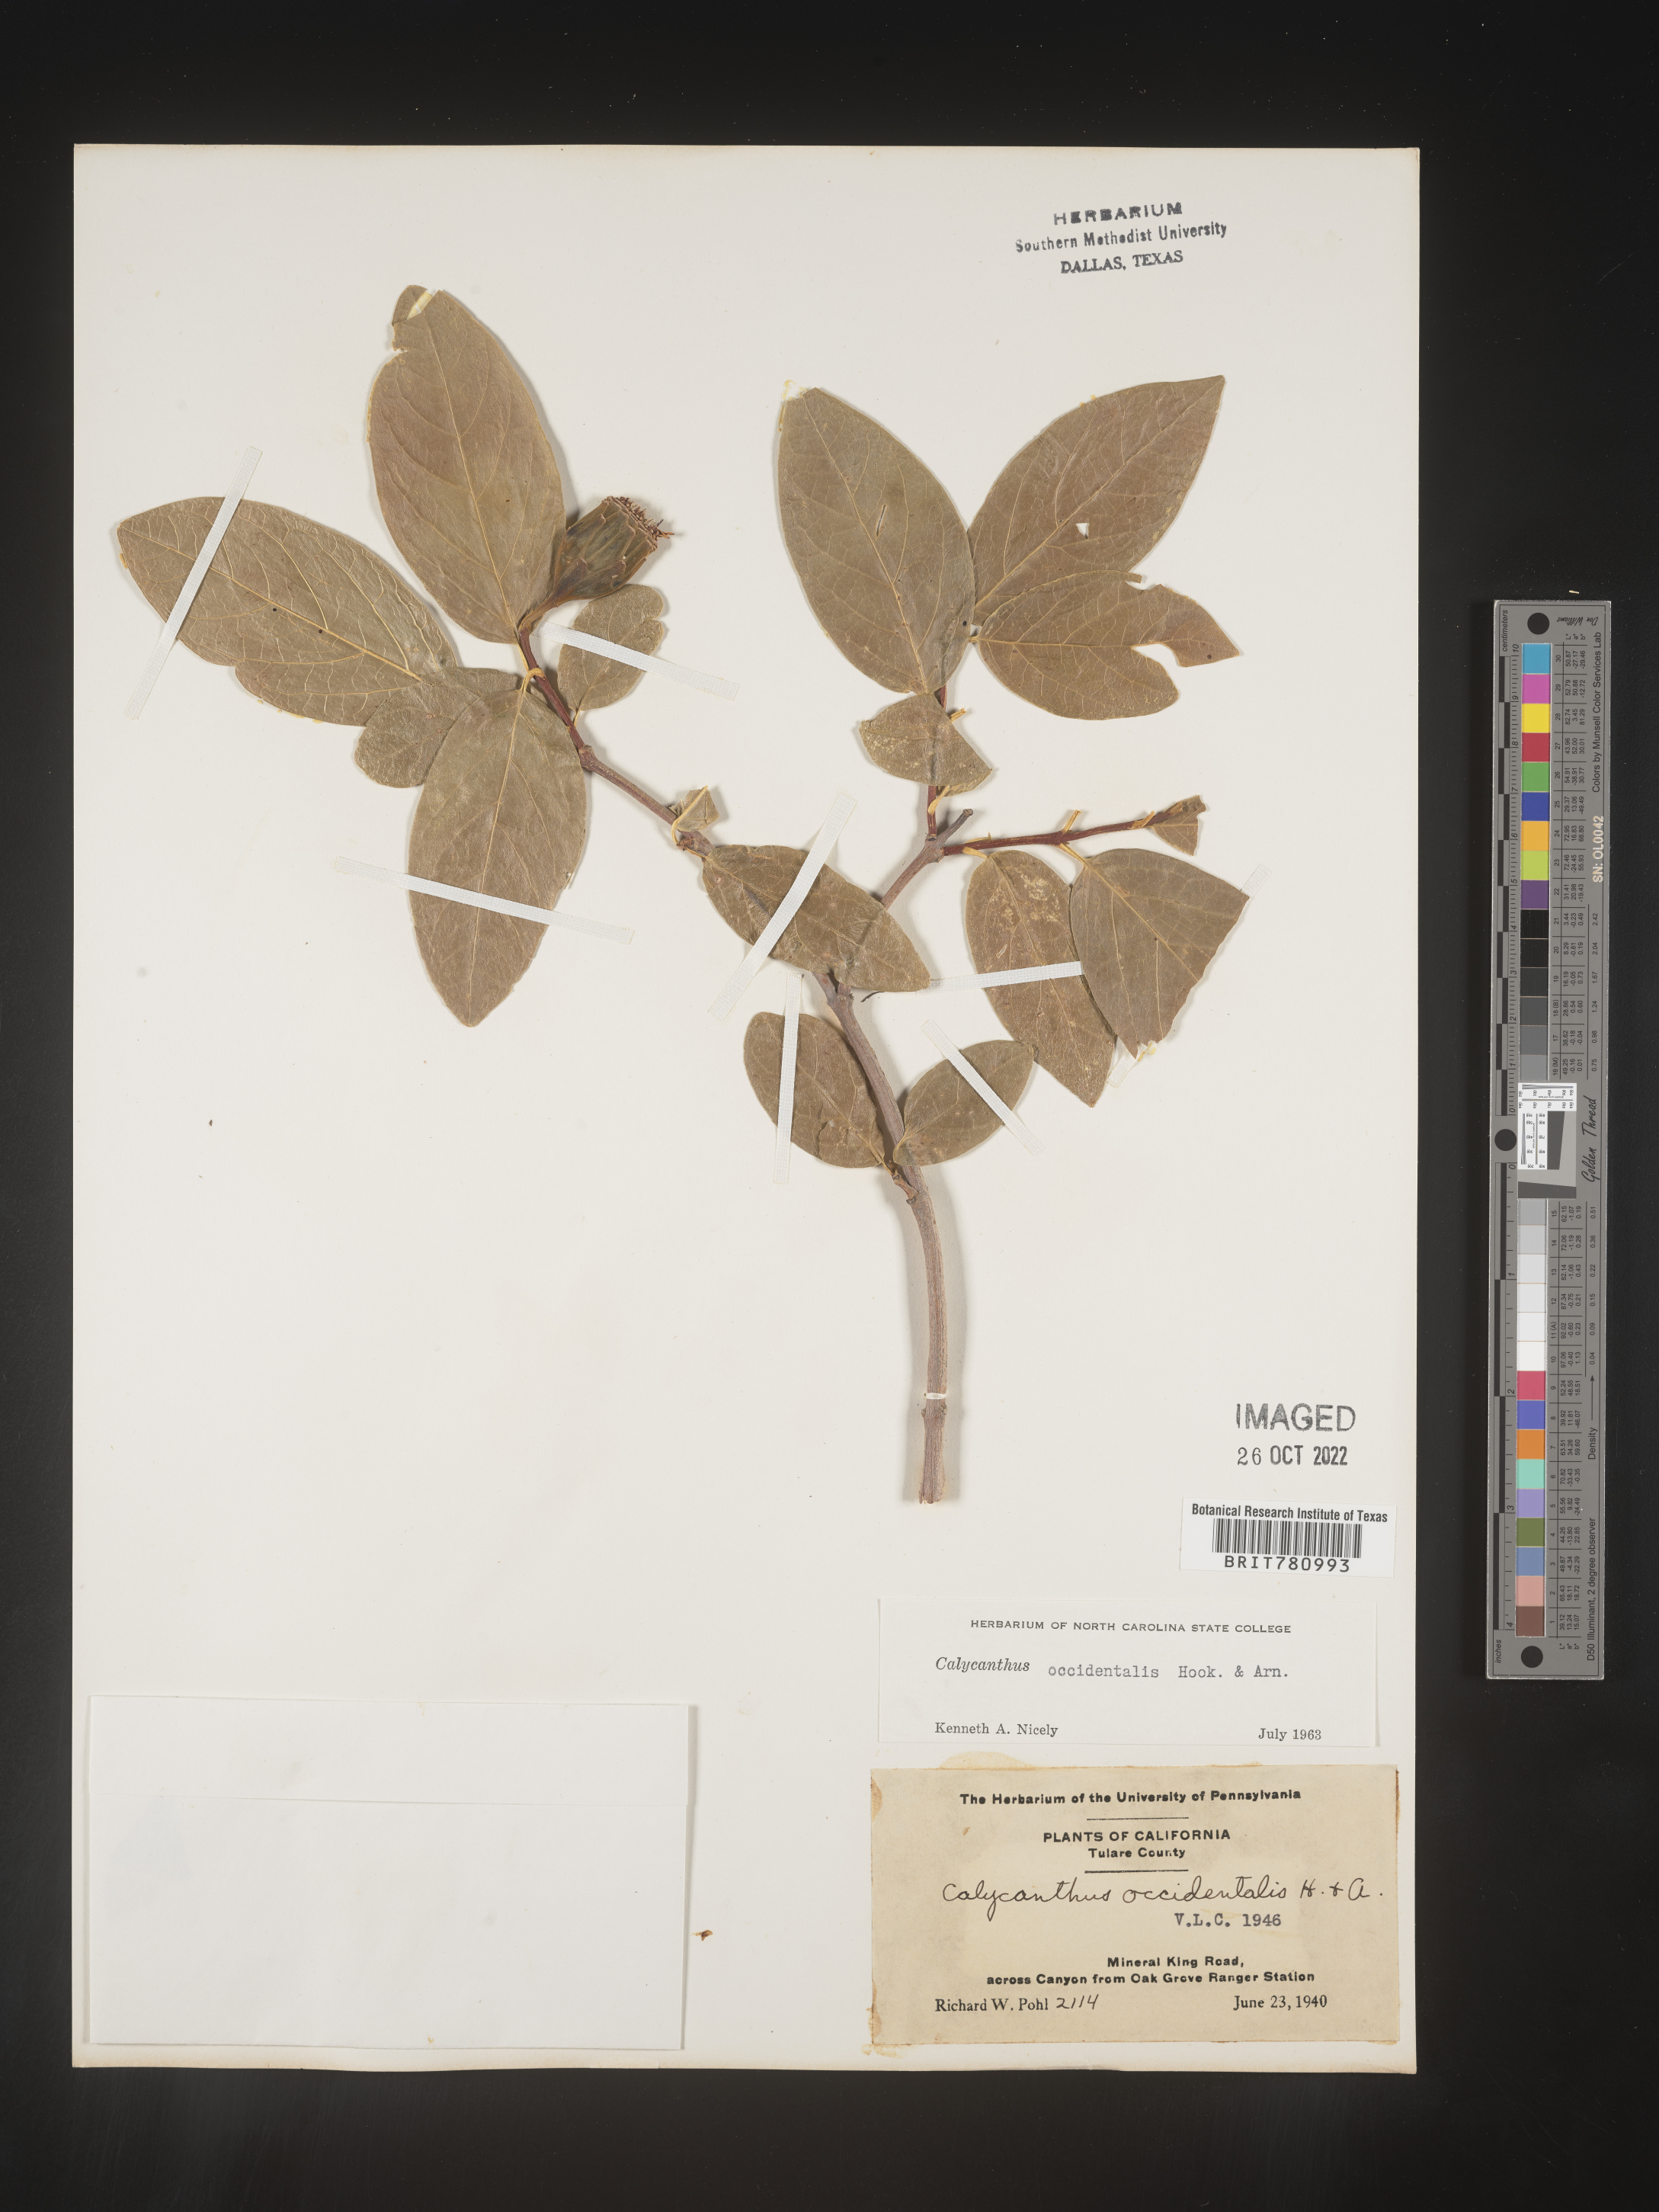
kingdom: Plantae
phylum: Tracheophyta
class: Magnoliopsida
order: Laurales
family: Calycanthaceae
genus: Calycanthus
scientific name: Calycanthus
